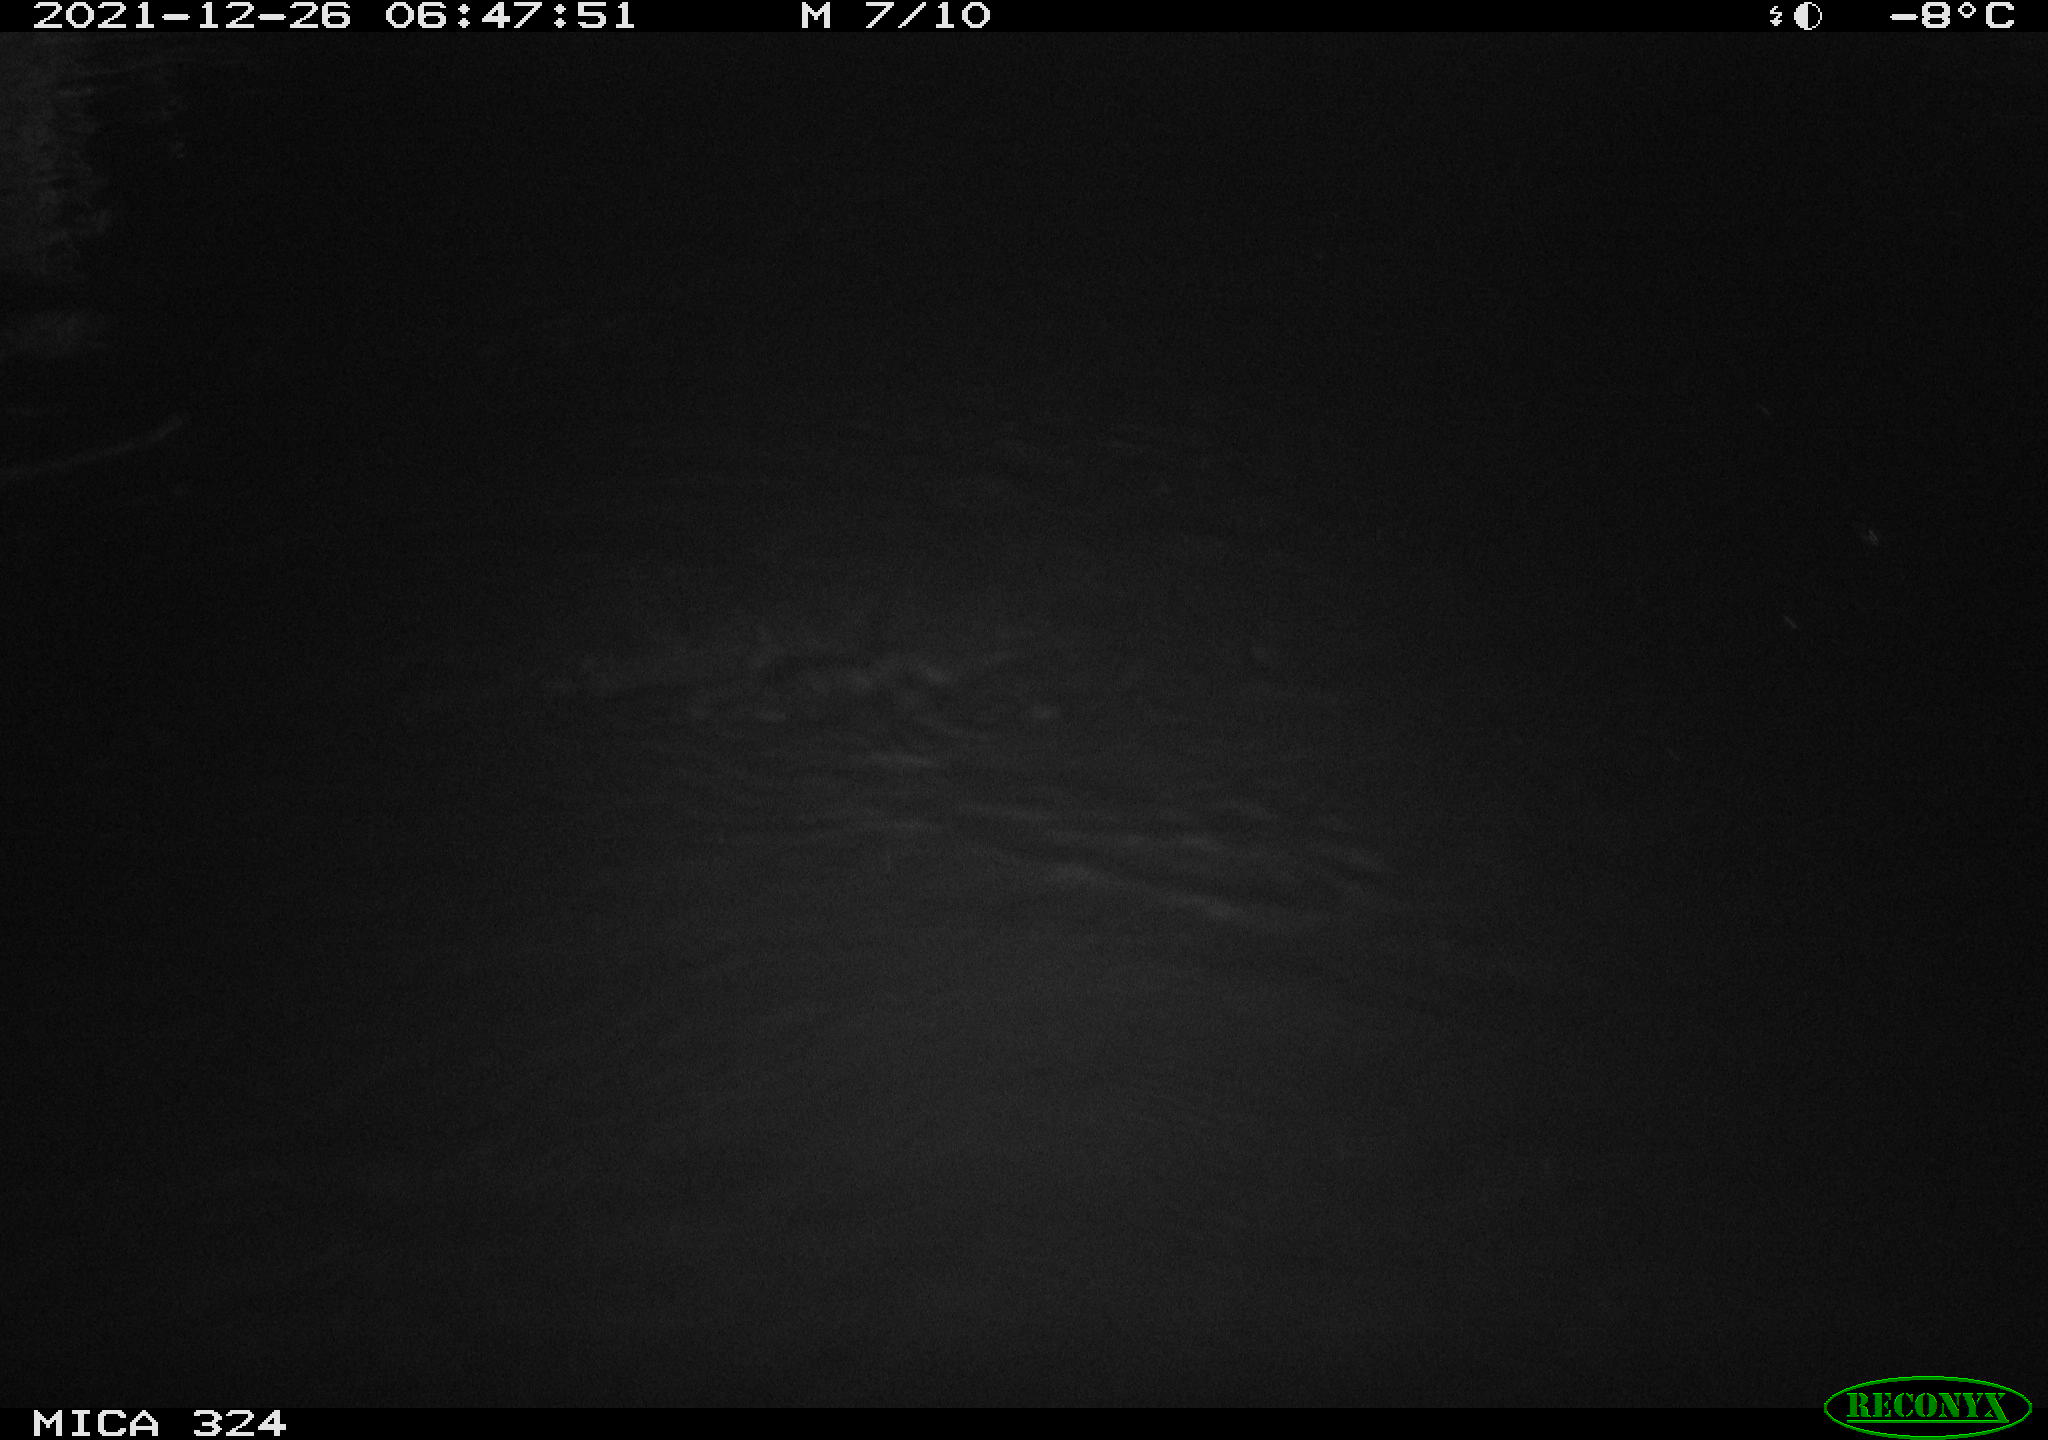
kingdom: Animalia
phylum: Chordata
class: Mammalia
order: Rodentia
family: Cricetidae
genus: Ondatra
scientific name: Ondatra zibethicus
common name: Muskrat
